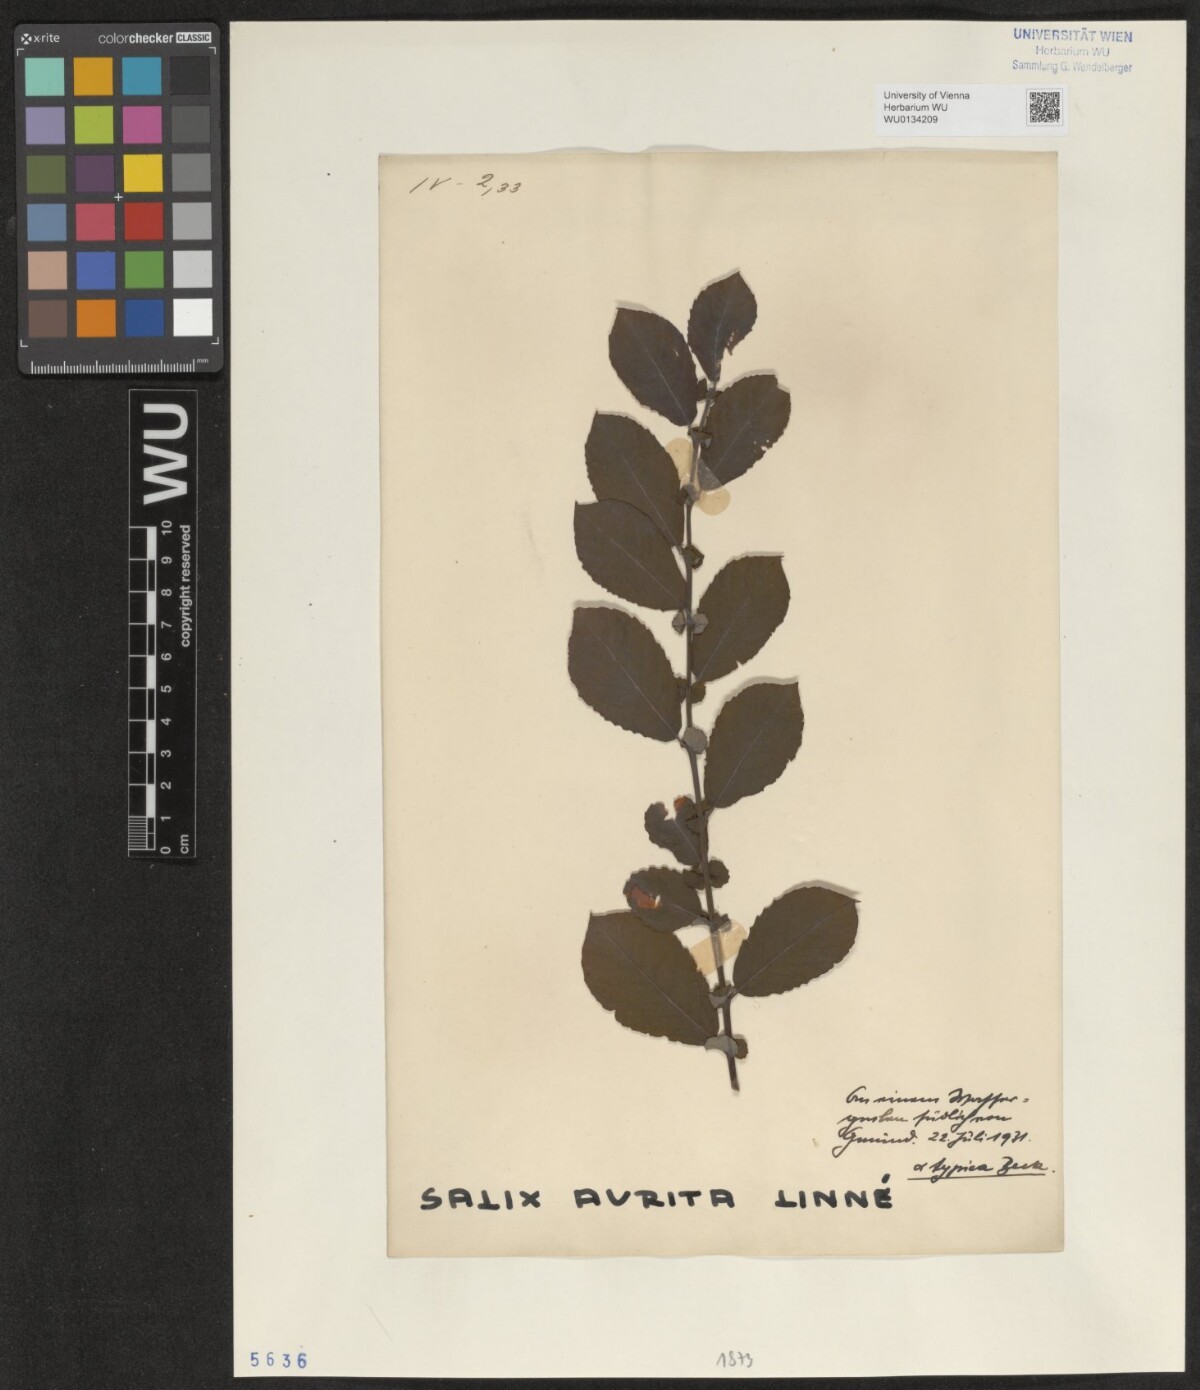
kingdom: Plantae
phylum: Tracheophyta
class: Magnoliopsida
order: Malpighiales
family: Salicaceae
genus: Salix
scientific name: Salix aurita
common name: Eared willow
